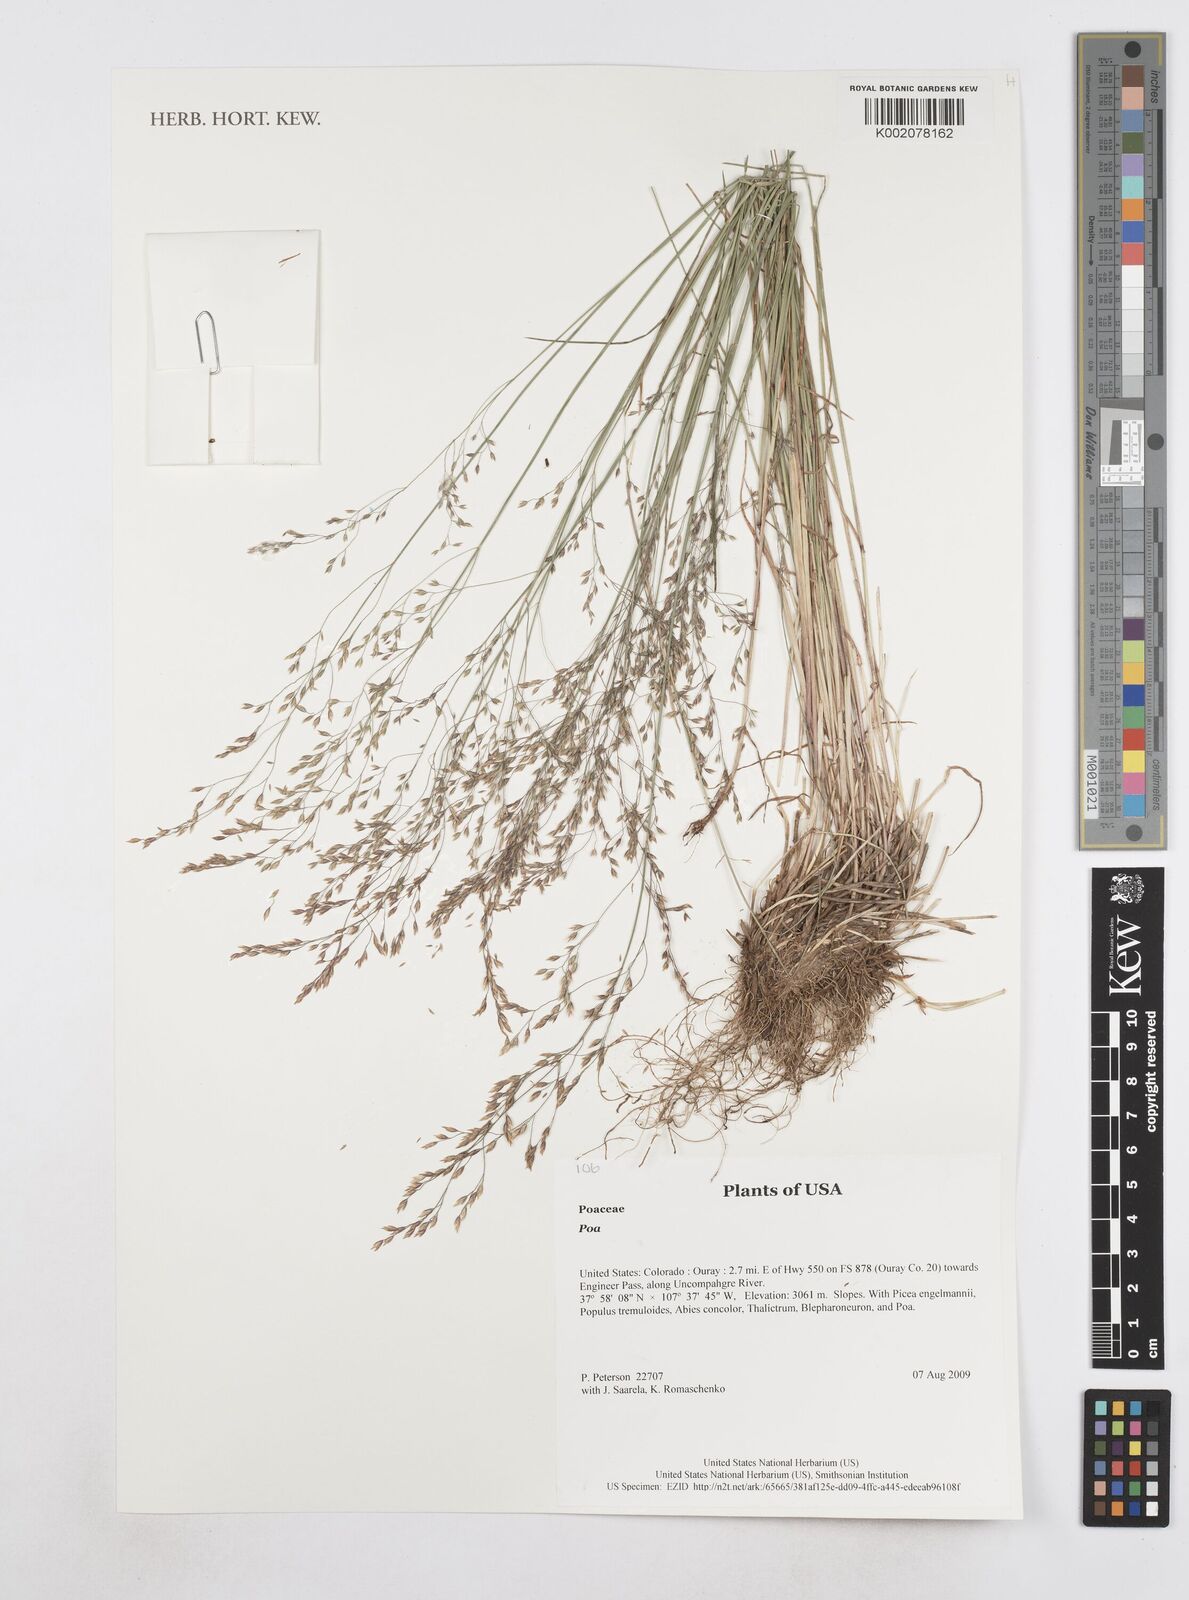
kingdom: Plantae
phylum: Tracheophyta
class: Liliopsida
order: Poales
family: Poaceae
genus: Poa
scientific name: Poa
